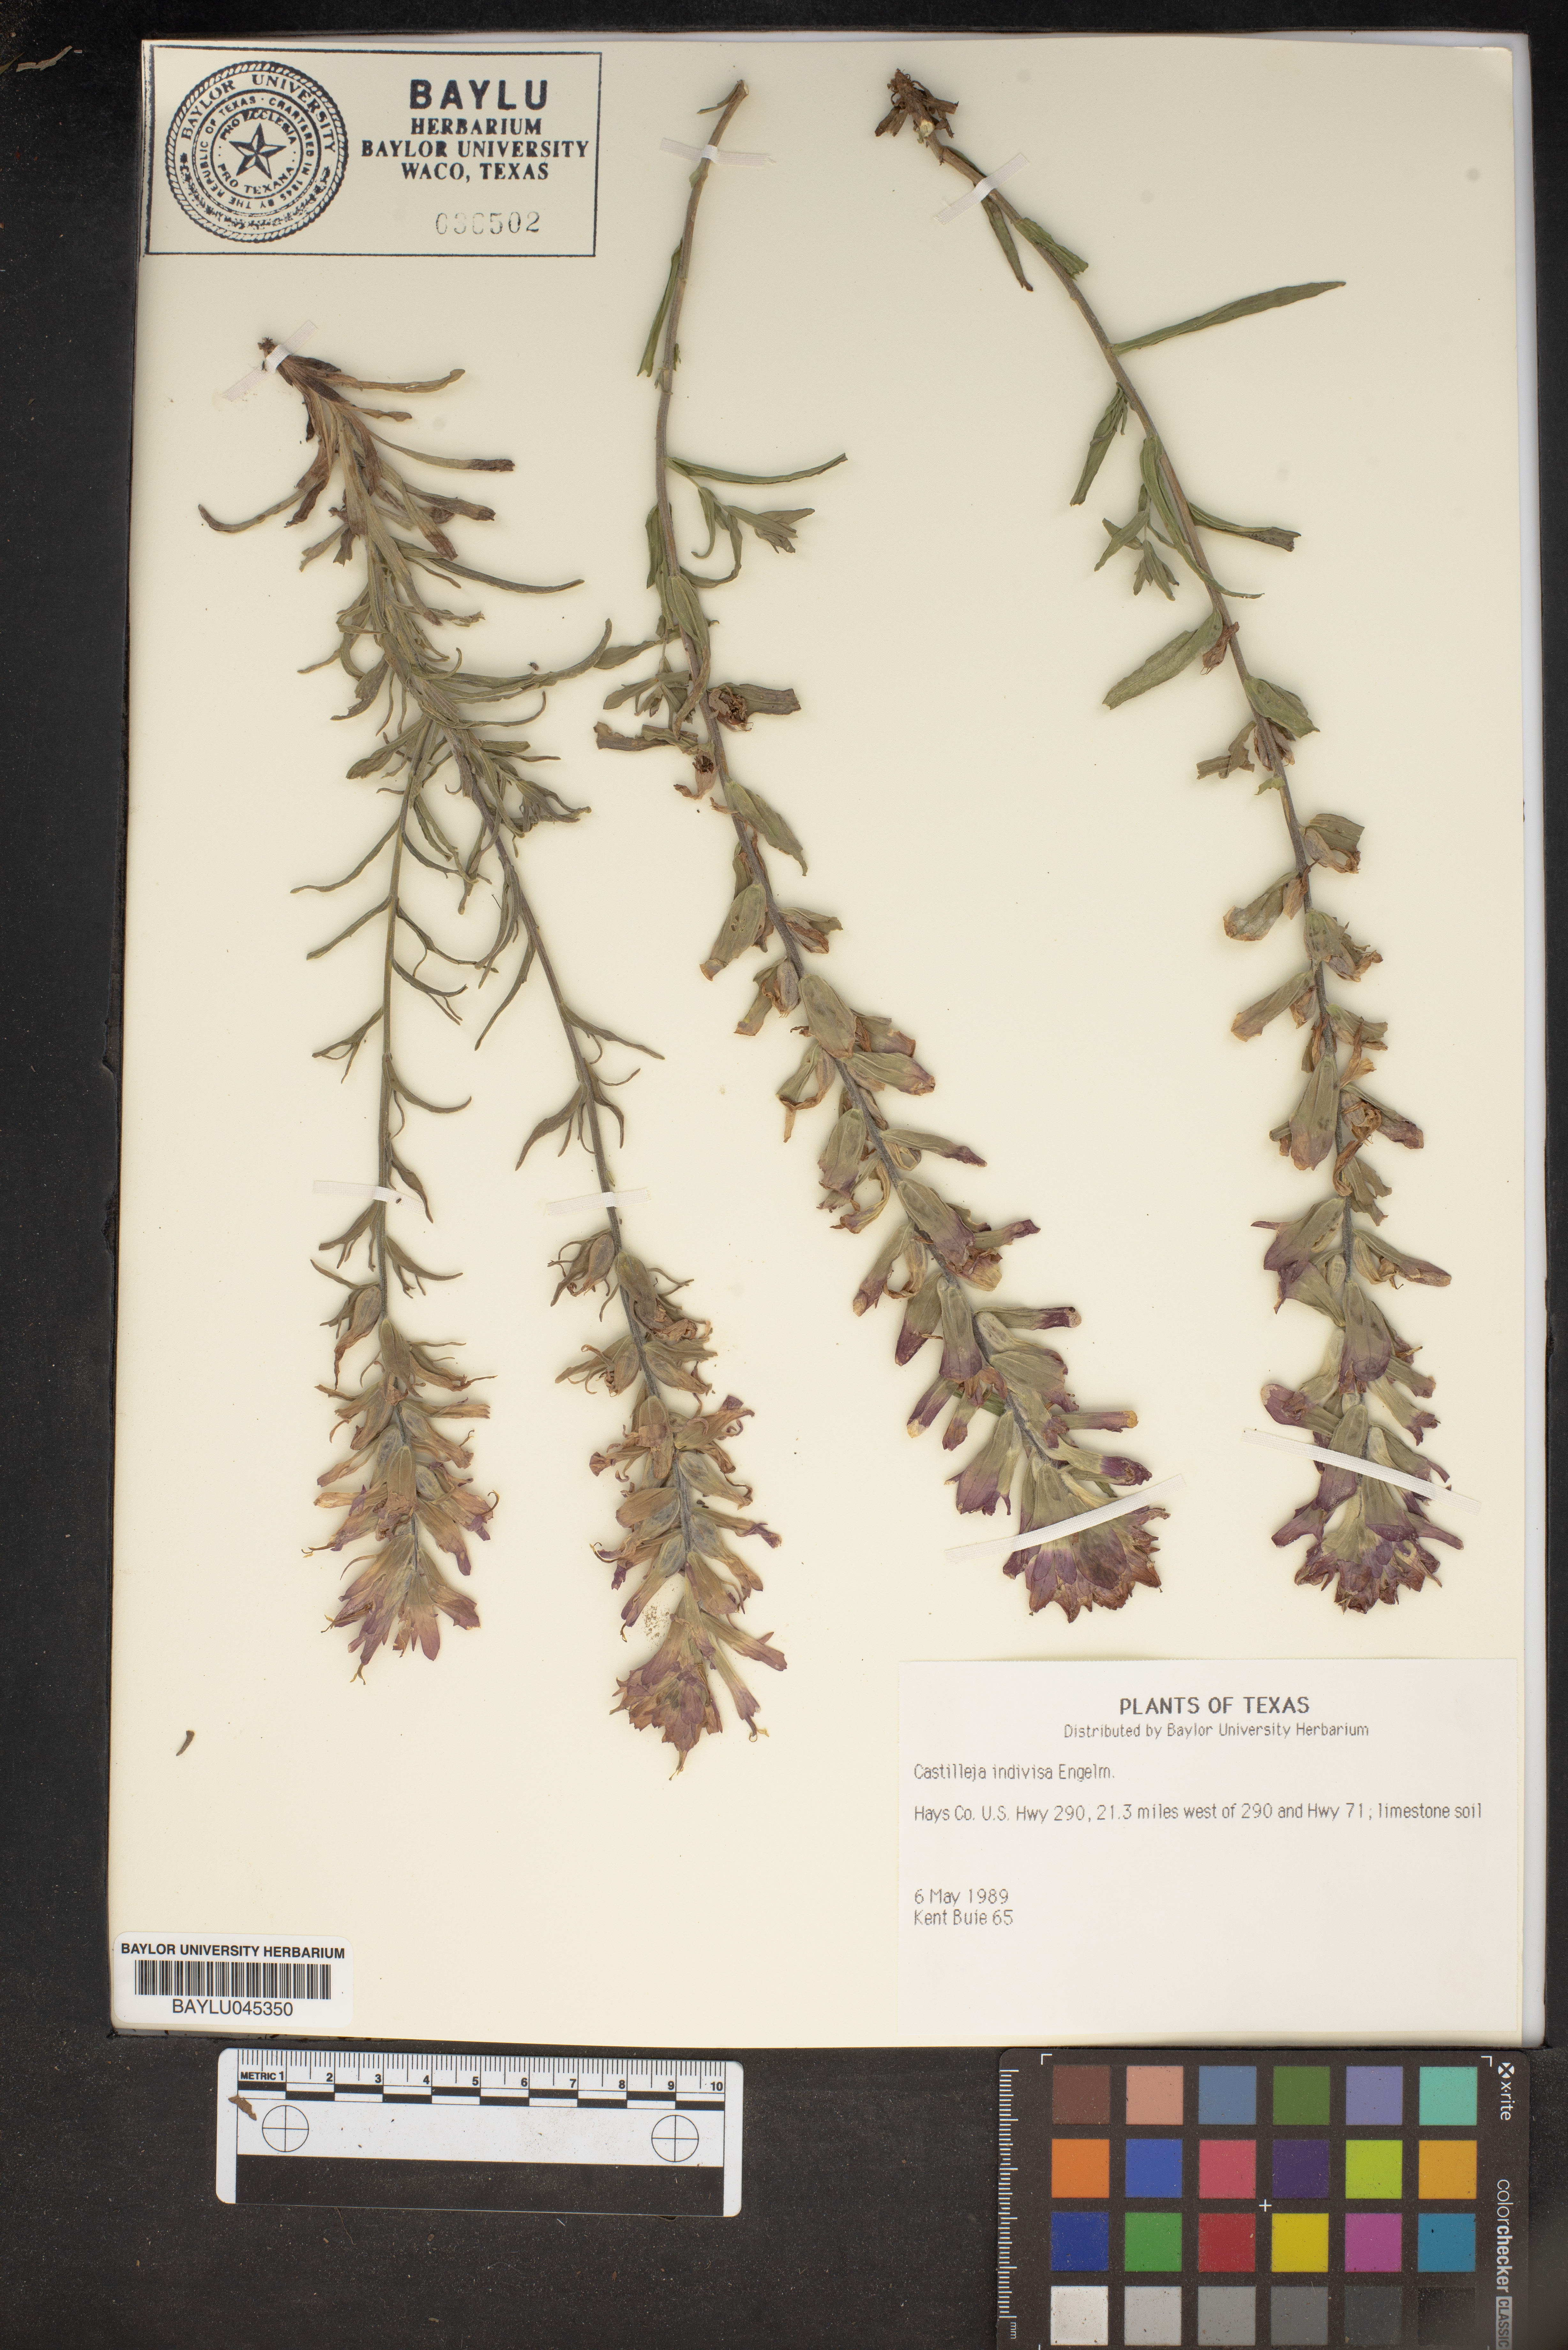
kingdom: Plantae
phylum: Tracheophyta
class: Magnoliopsida
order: Lamiales
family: Orobanchaceae
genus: Castilleja
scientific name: Castilleja indivisa
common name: Texas paintbrush
